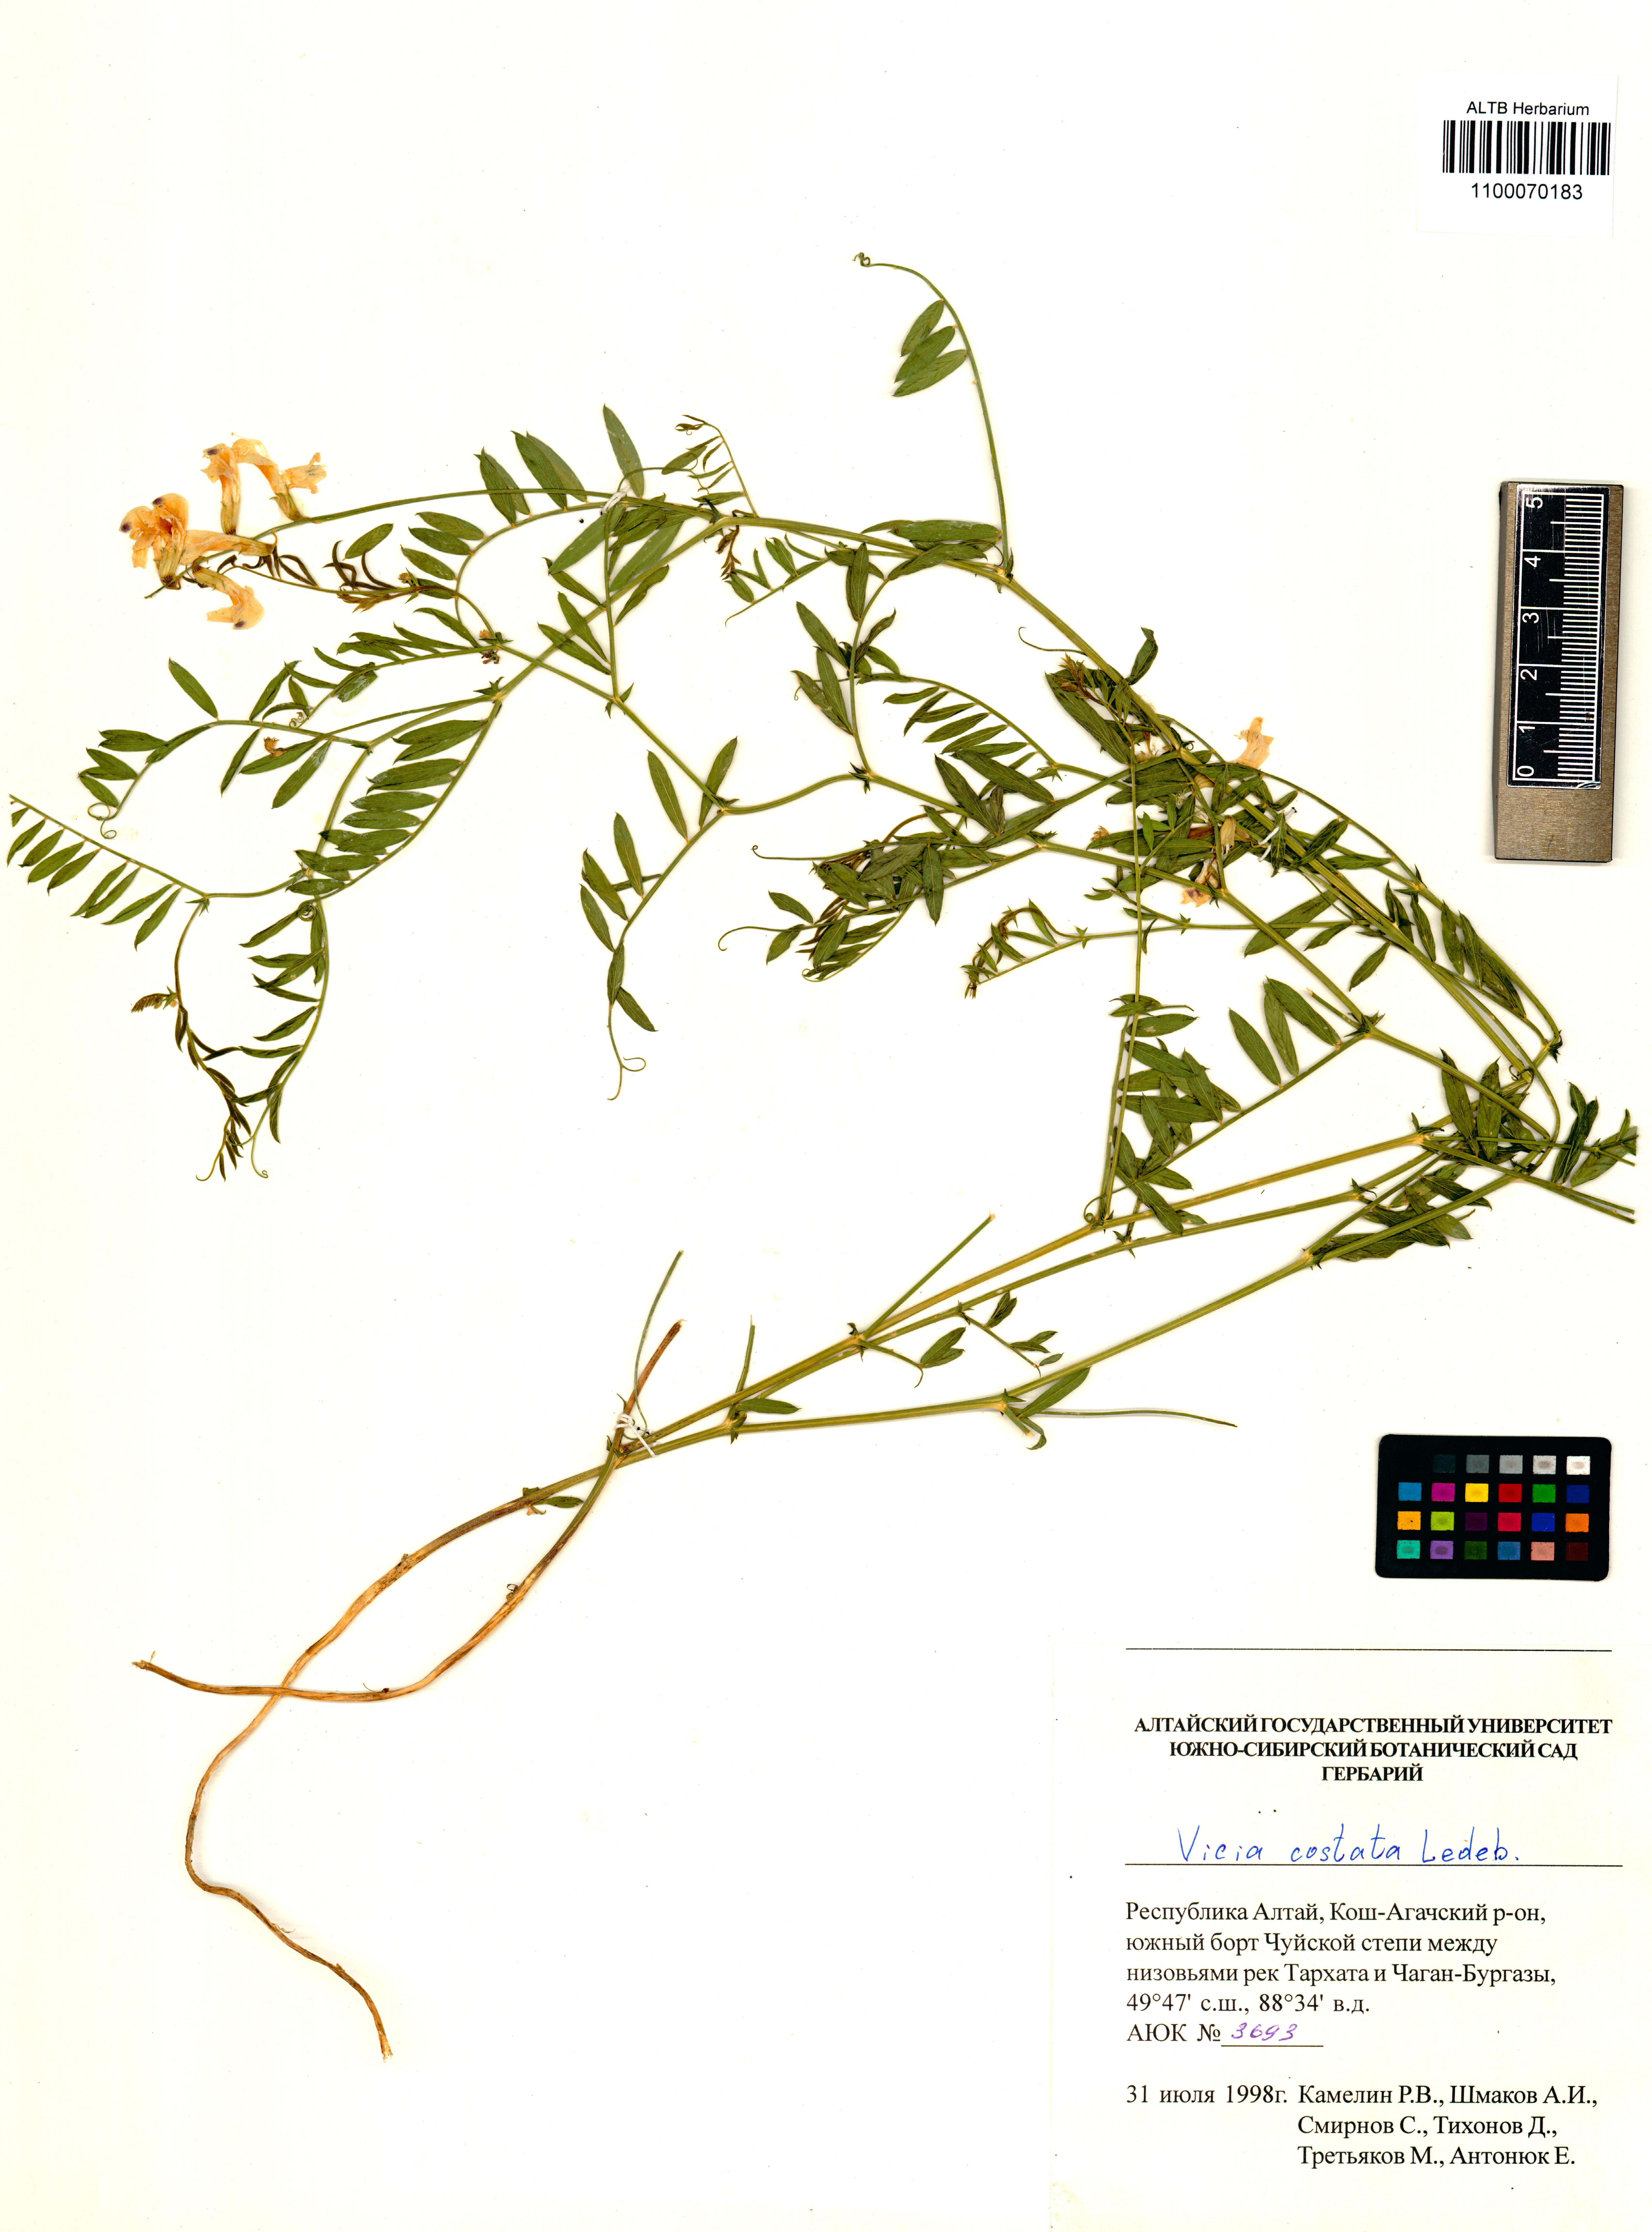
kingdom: Plantae
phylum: Tracheophyta
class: Magnoliopsida
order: Fabales
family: Fabaceae
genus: Vicia
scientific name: Vicia costata
